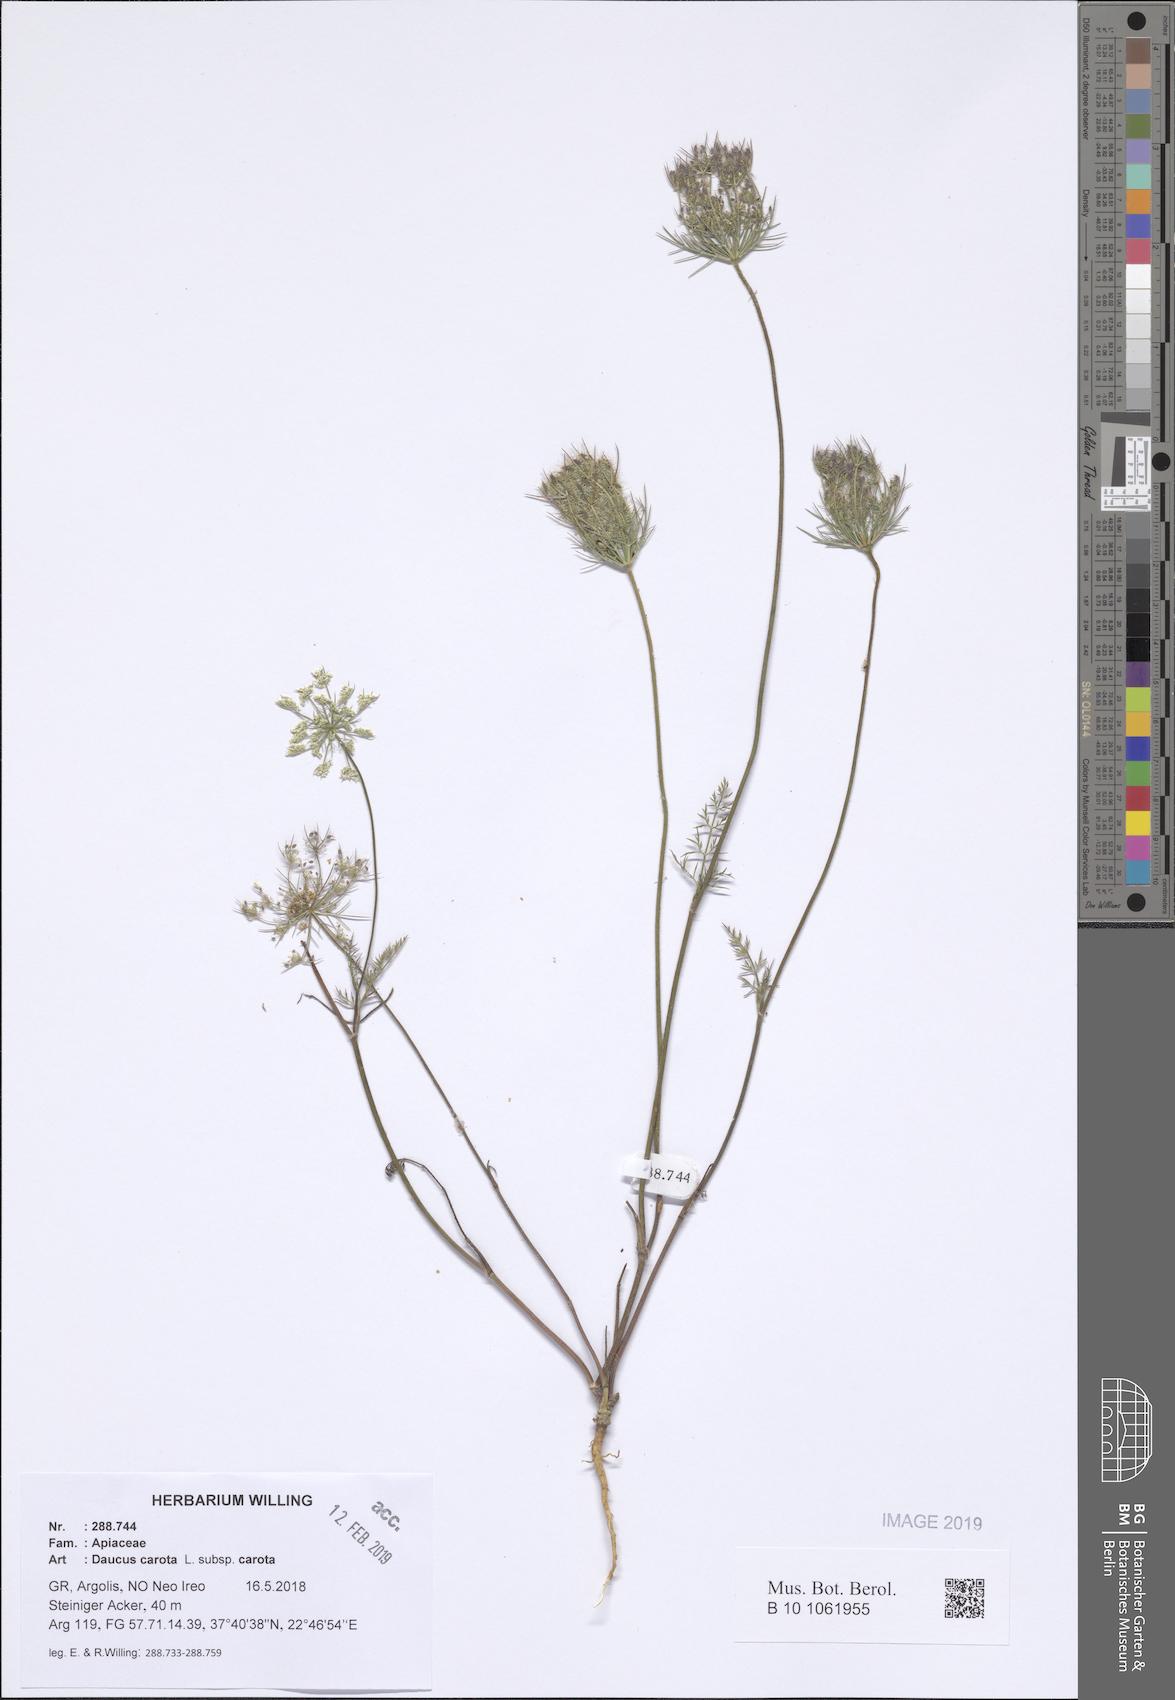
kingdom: Plantae
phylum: Tracheophyta
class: Magnoliopsida
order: Apiales
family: Apiaceae
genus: Daucus
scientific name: Daucus carota
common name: Wild carrot
